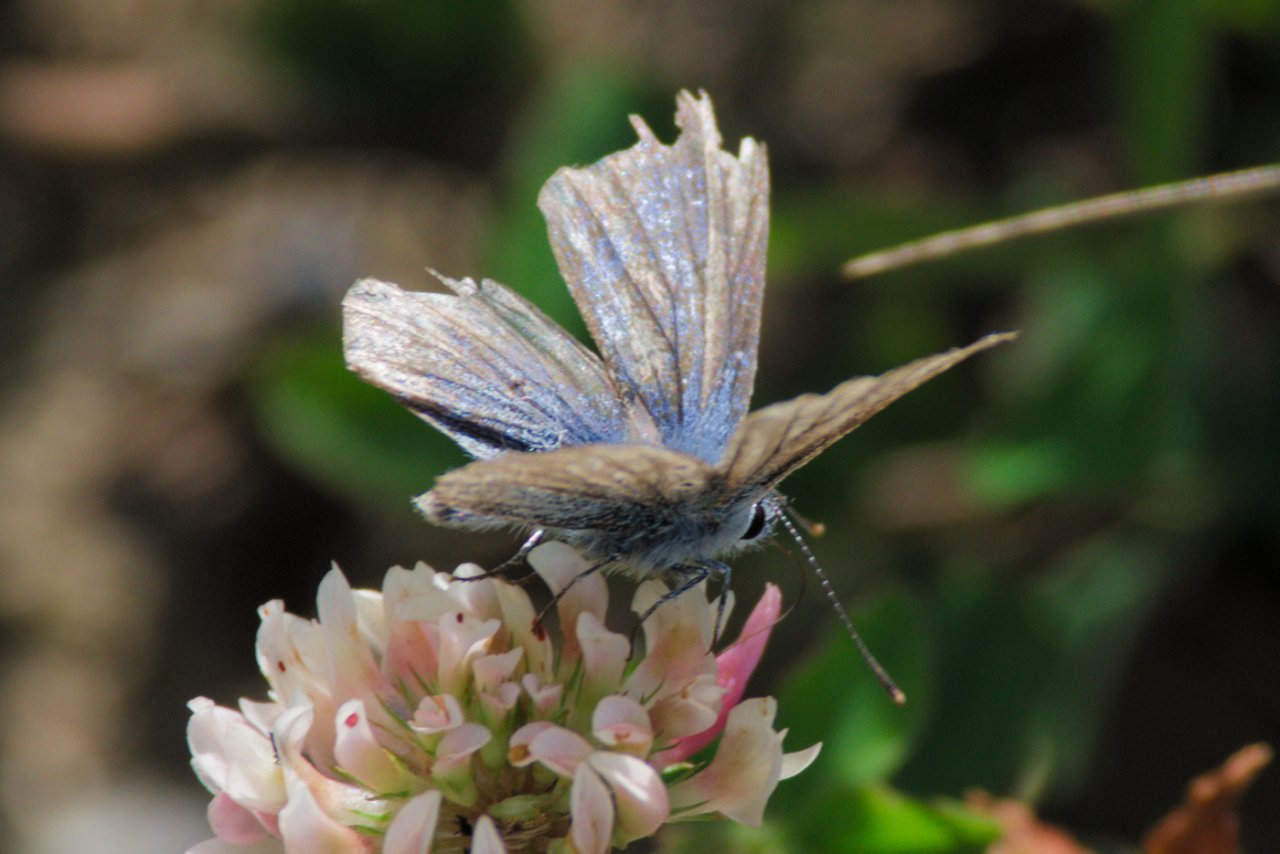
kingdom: Animalia
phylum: Arthropoda
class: Insecta
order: Lepidoptera
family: Lycaenidae
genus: Glaucopsyche
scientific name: Glaucopsyche lygdamus
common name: Silvery Blue
